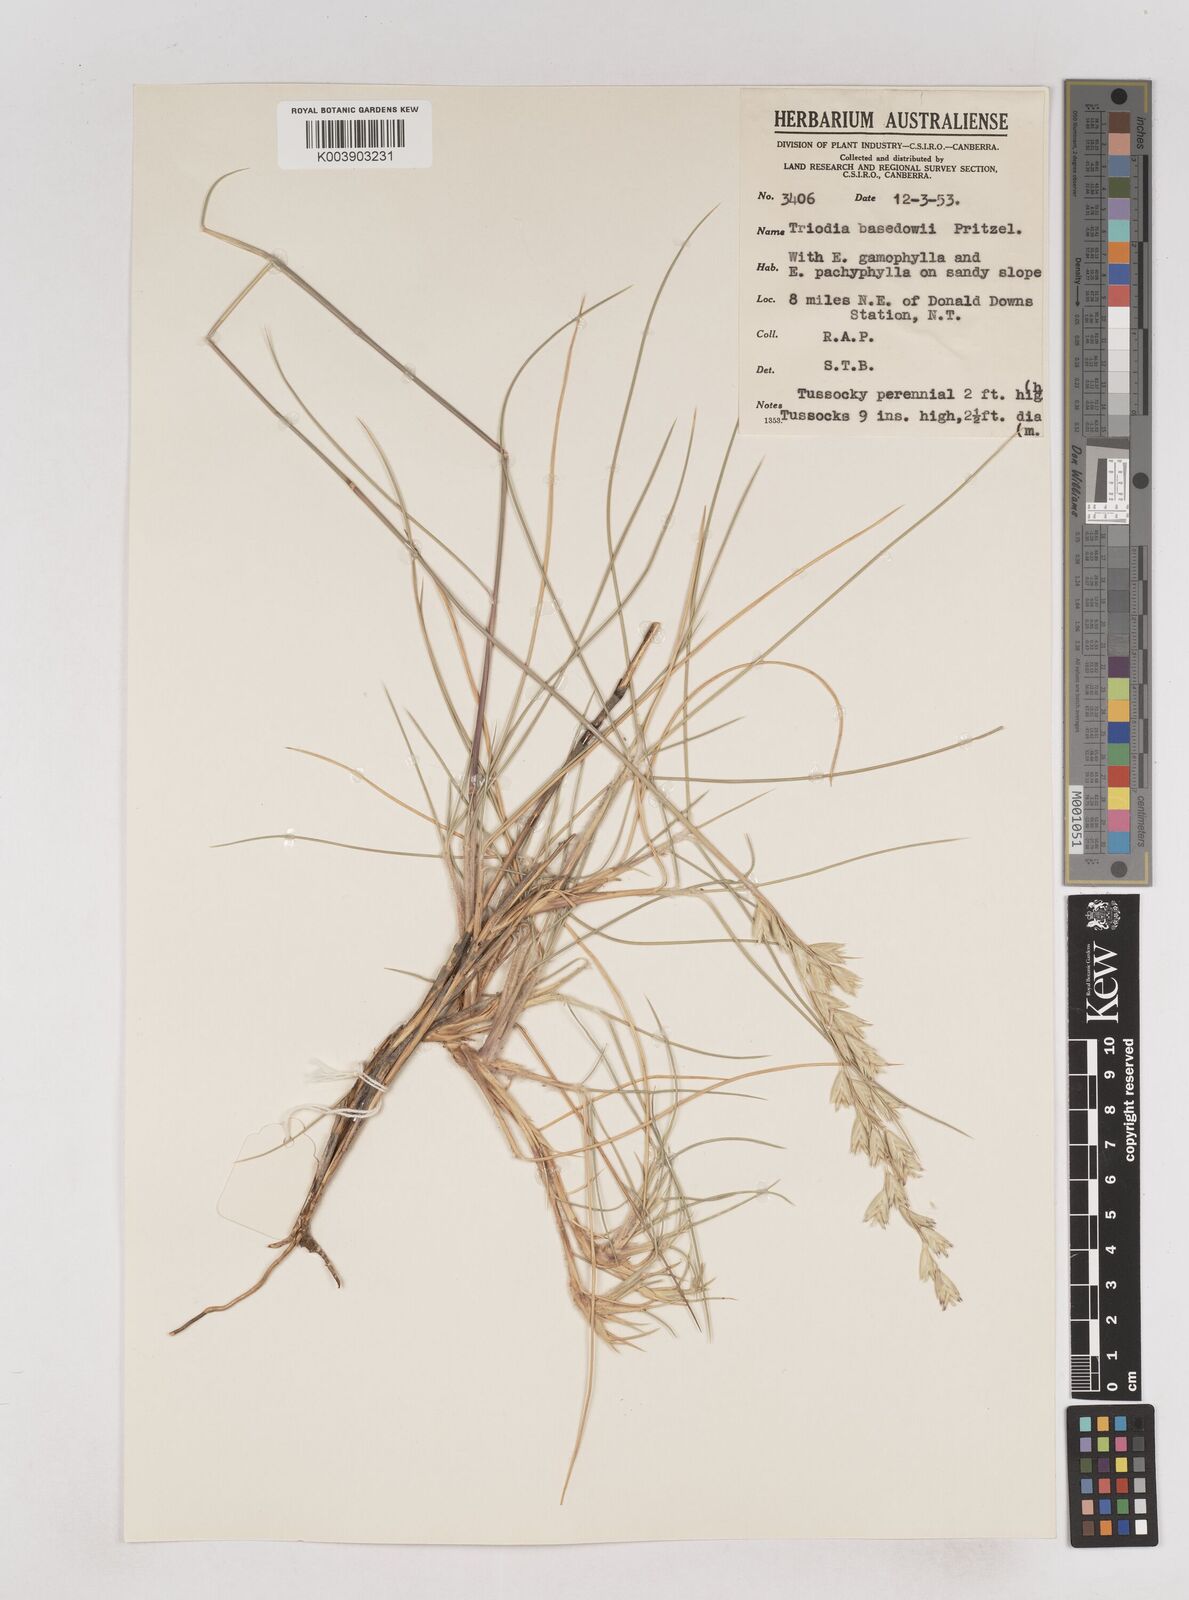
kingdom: Plantae
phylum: Tracheophyta
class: Liliopsida
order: Poales
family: Poaceae
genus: Triodia
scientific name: Triodia basedowii
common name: Hard spinifex
